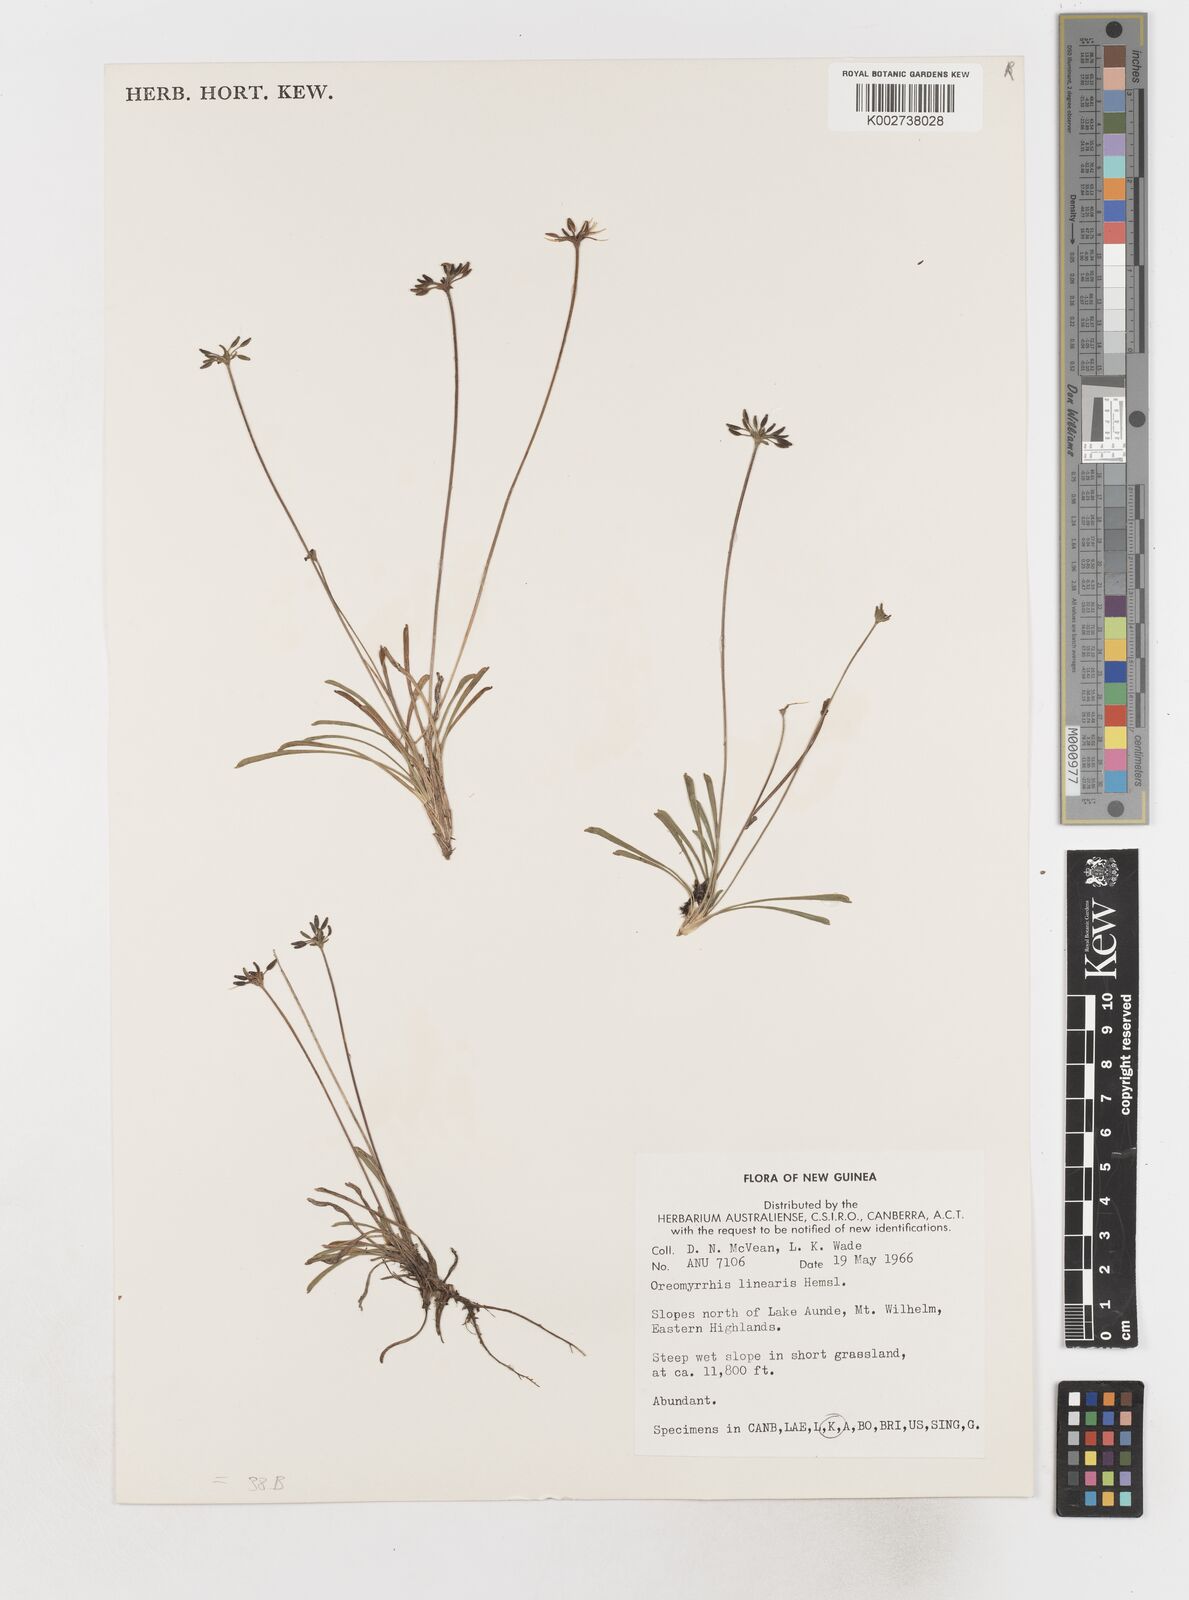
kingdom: Plantae
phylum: Tracheophyta
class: Magnoliopsida
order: Apiales
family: Apiaceae
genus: Chaerophyllum
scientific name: Chaerophyllum lineare
